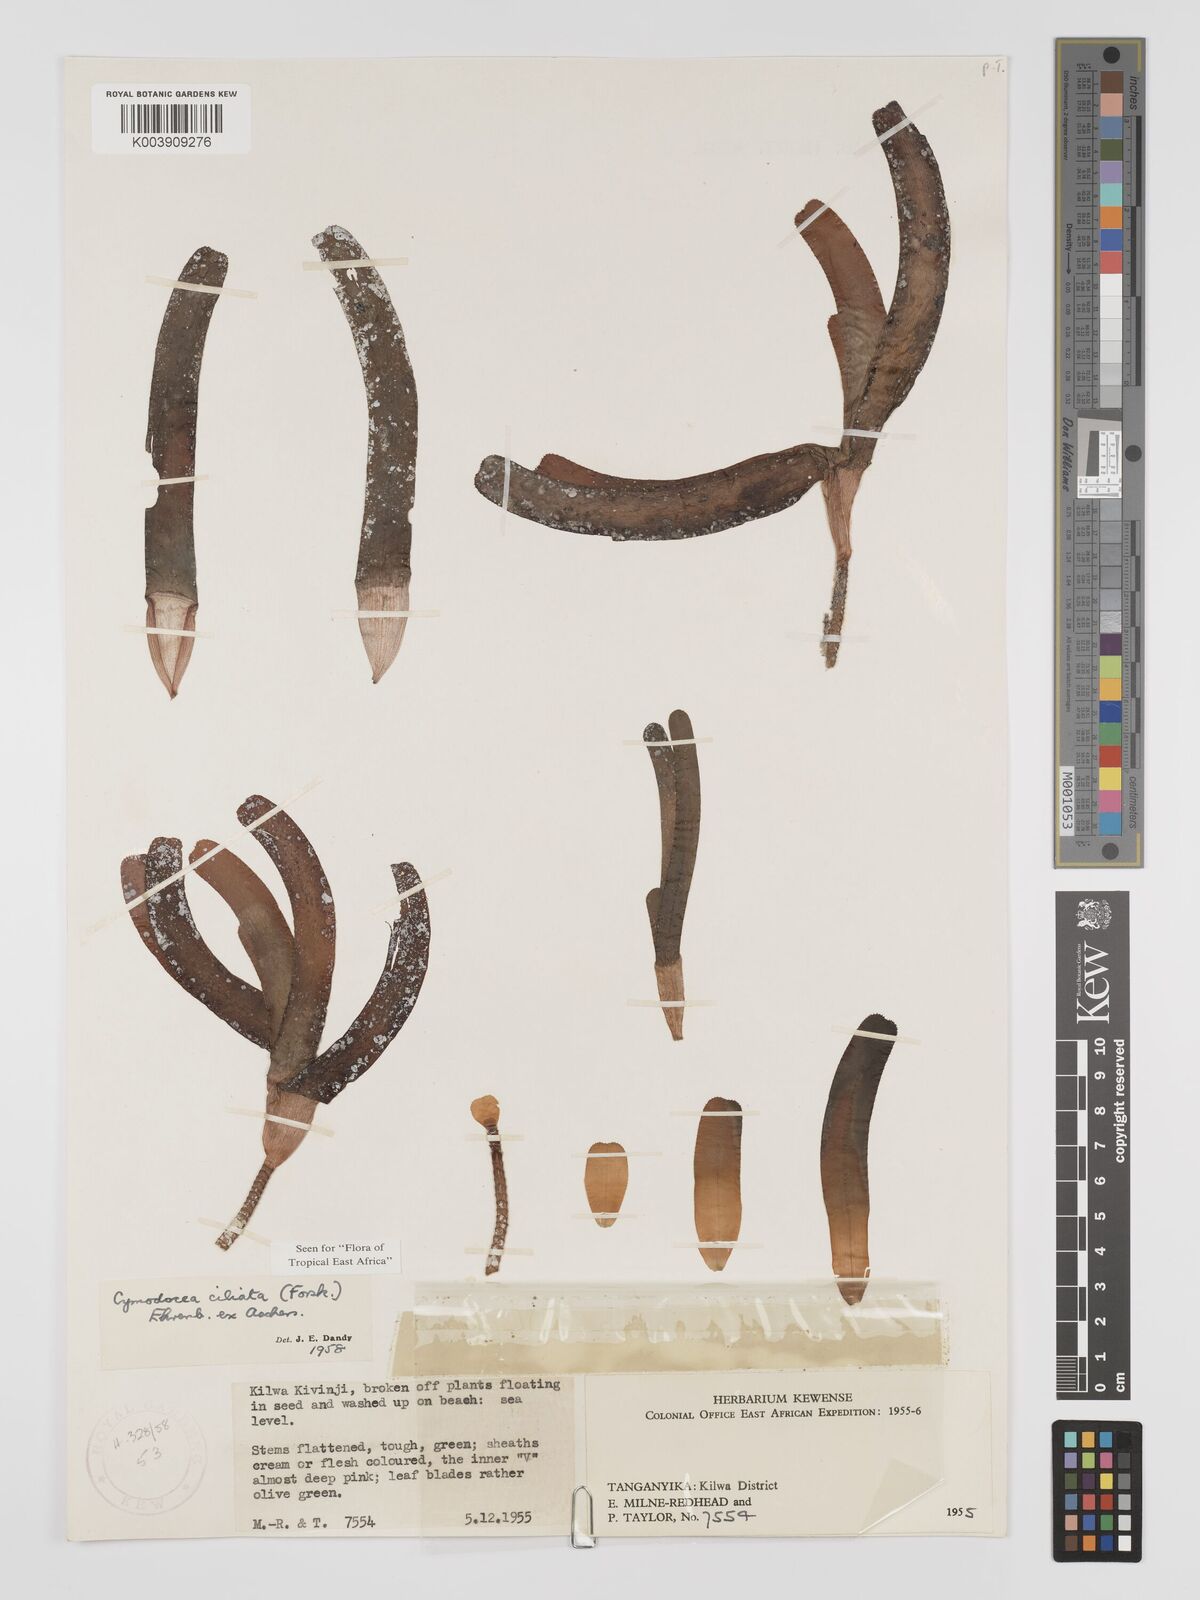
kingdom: Plantae
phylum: Tracheophyta
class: Liliopsida
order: Alismatales
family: Cymodoceaceae
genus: Thalassodendron
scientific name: Thalassodendron ciliatum
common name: Species code: tc
